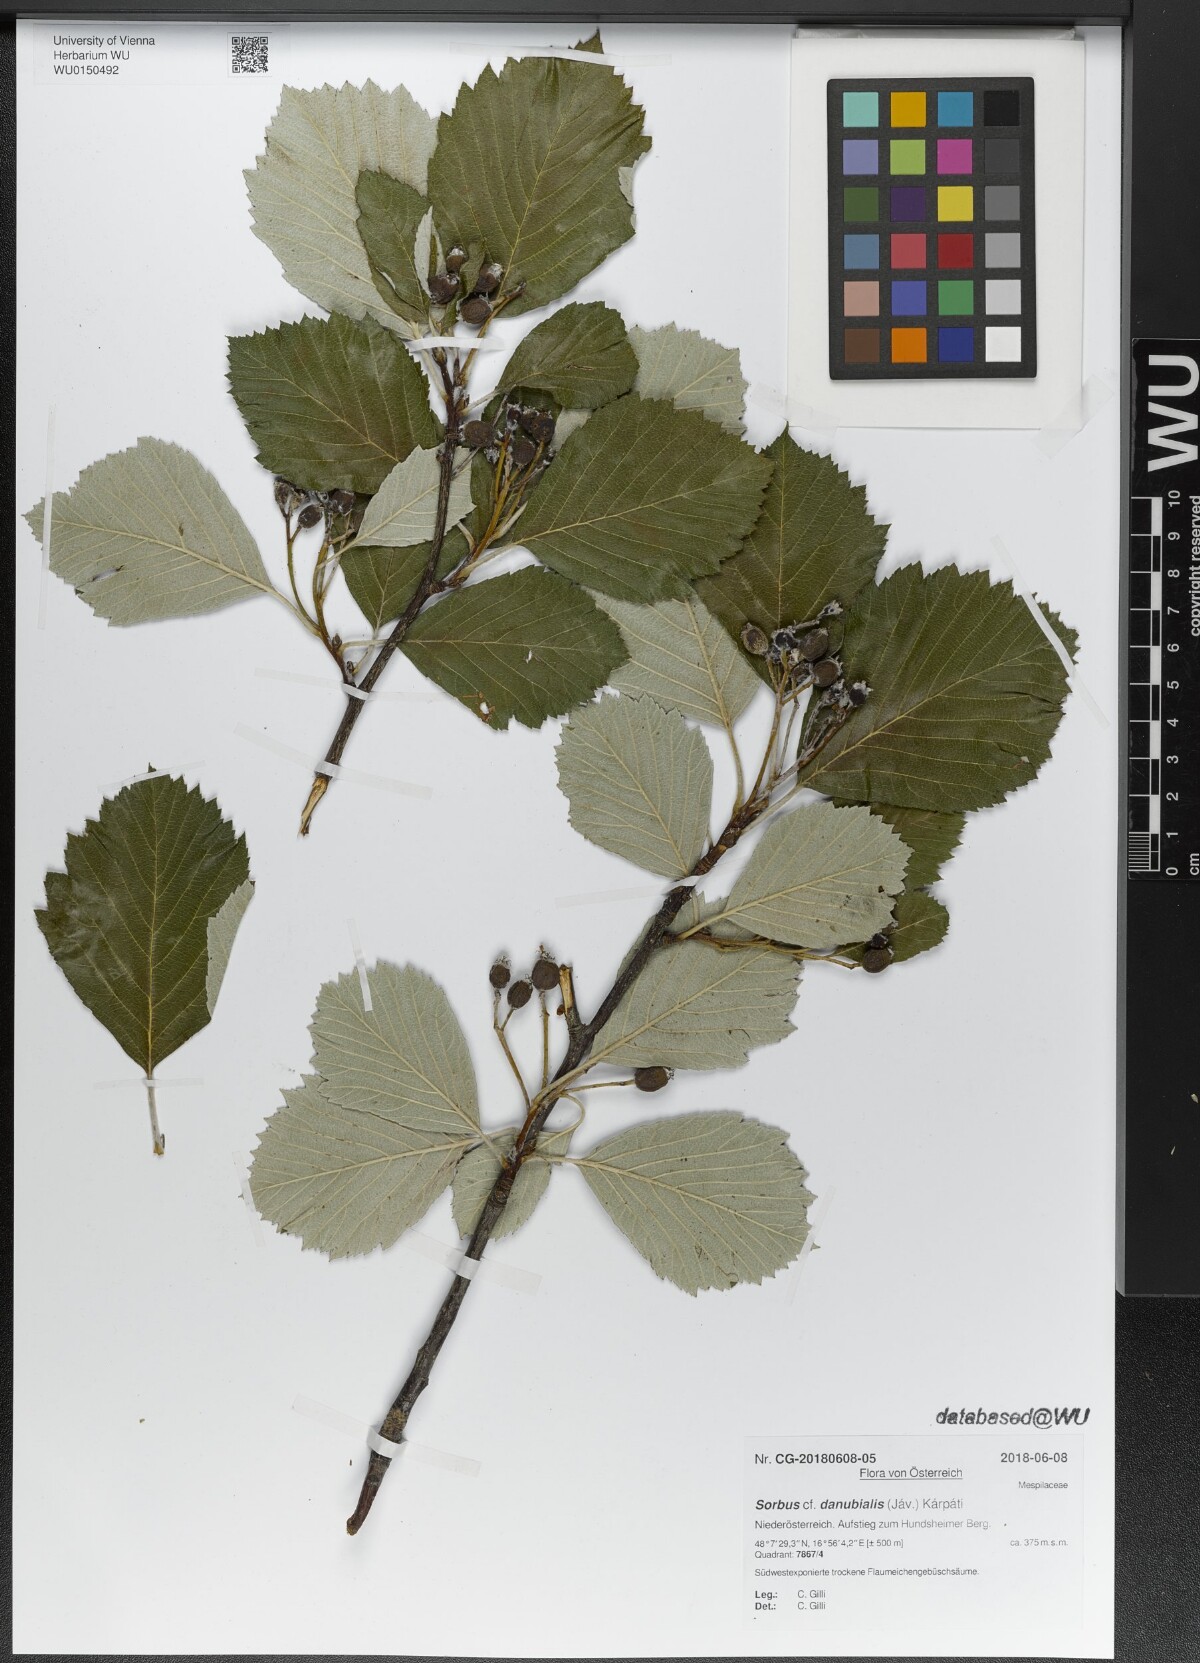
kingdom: Plantae
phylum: Tracheophyta
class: Magnoliopsida
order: Rosales
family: Rosaceae
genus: Aria
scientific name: Aria danubialis
